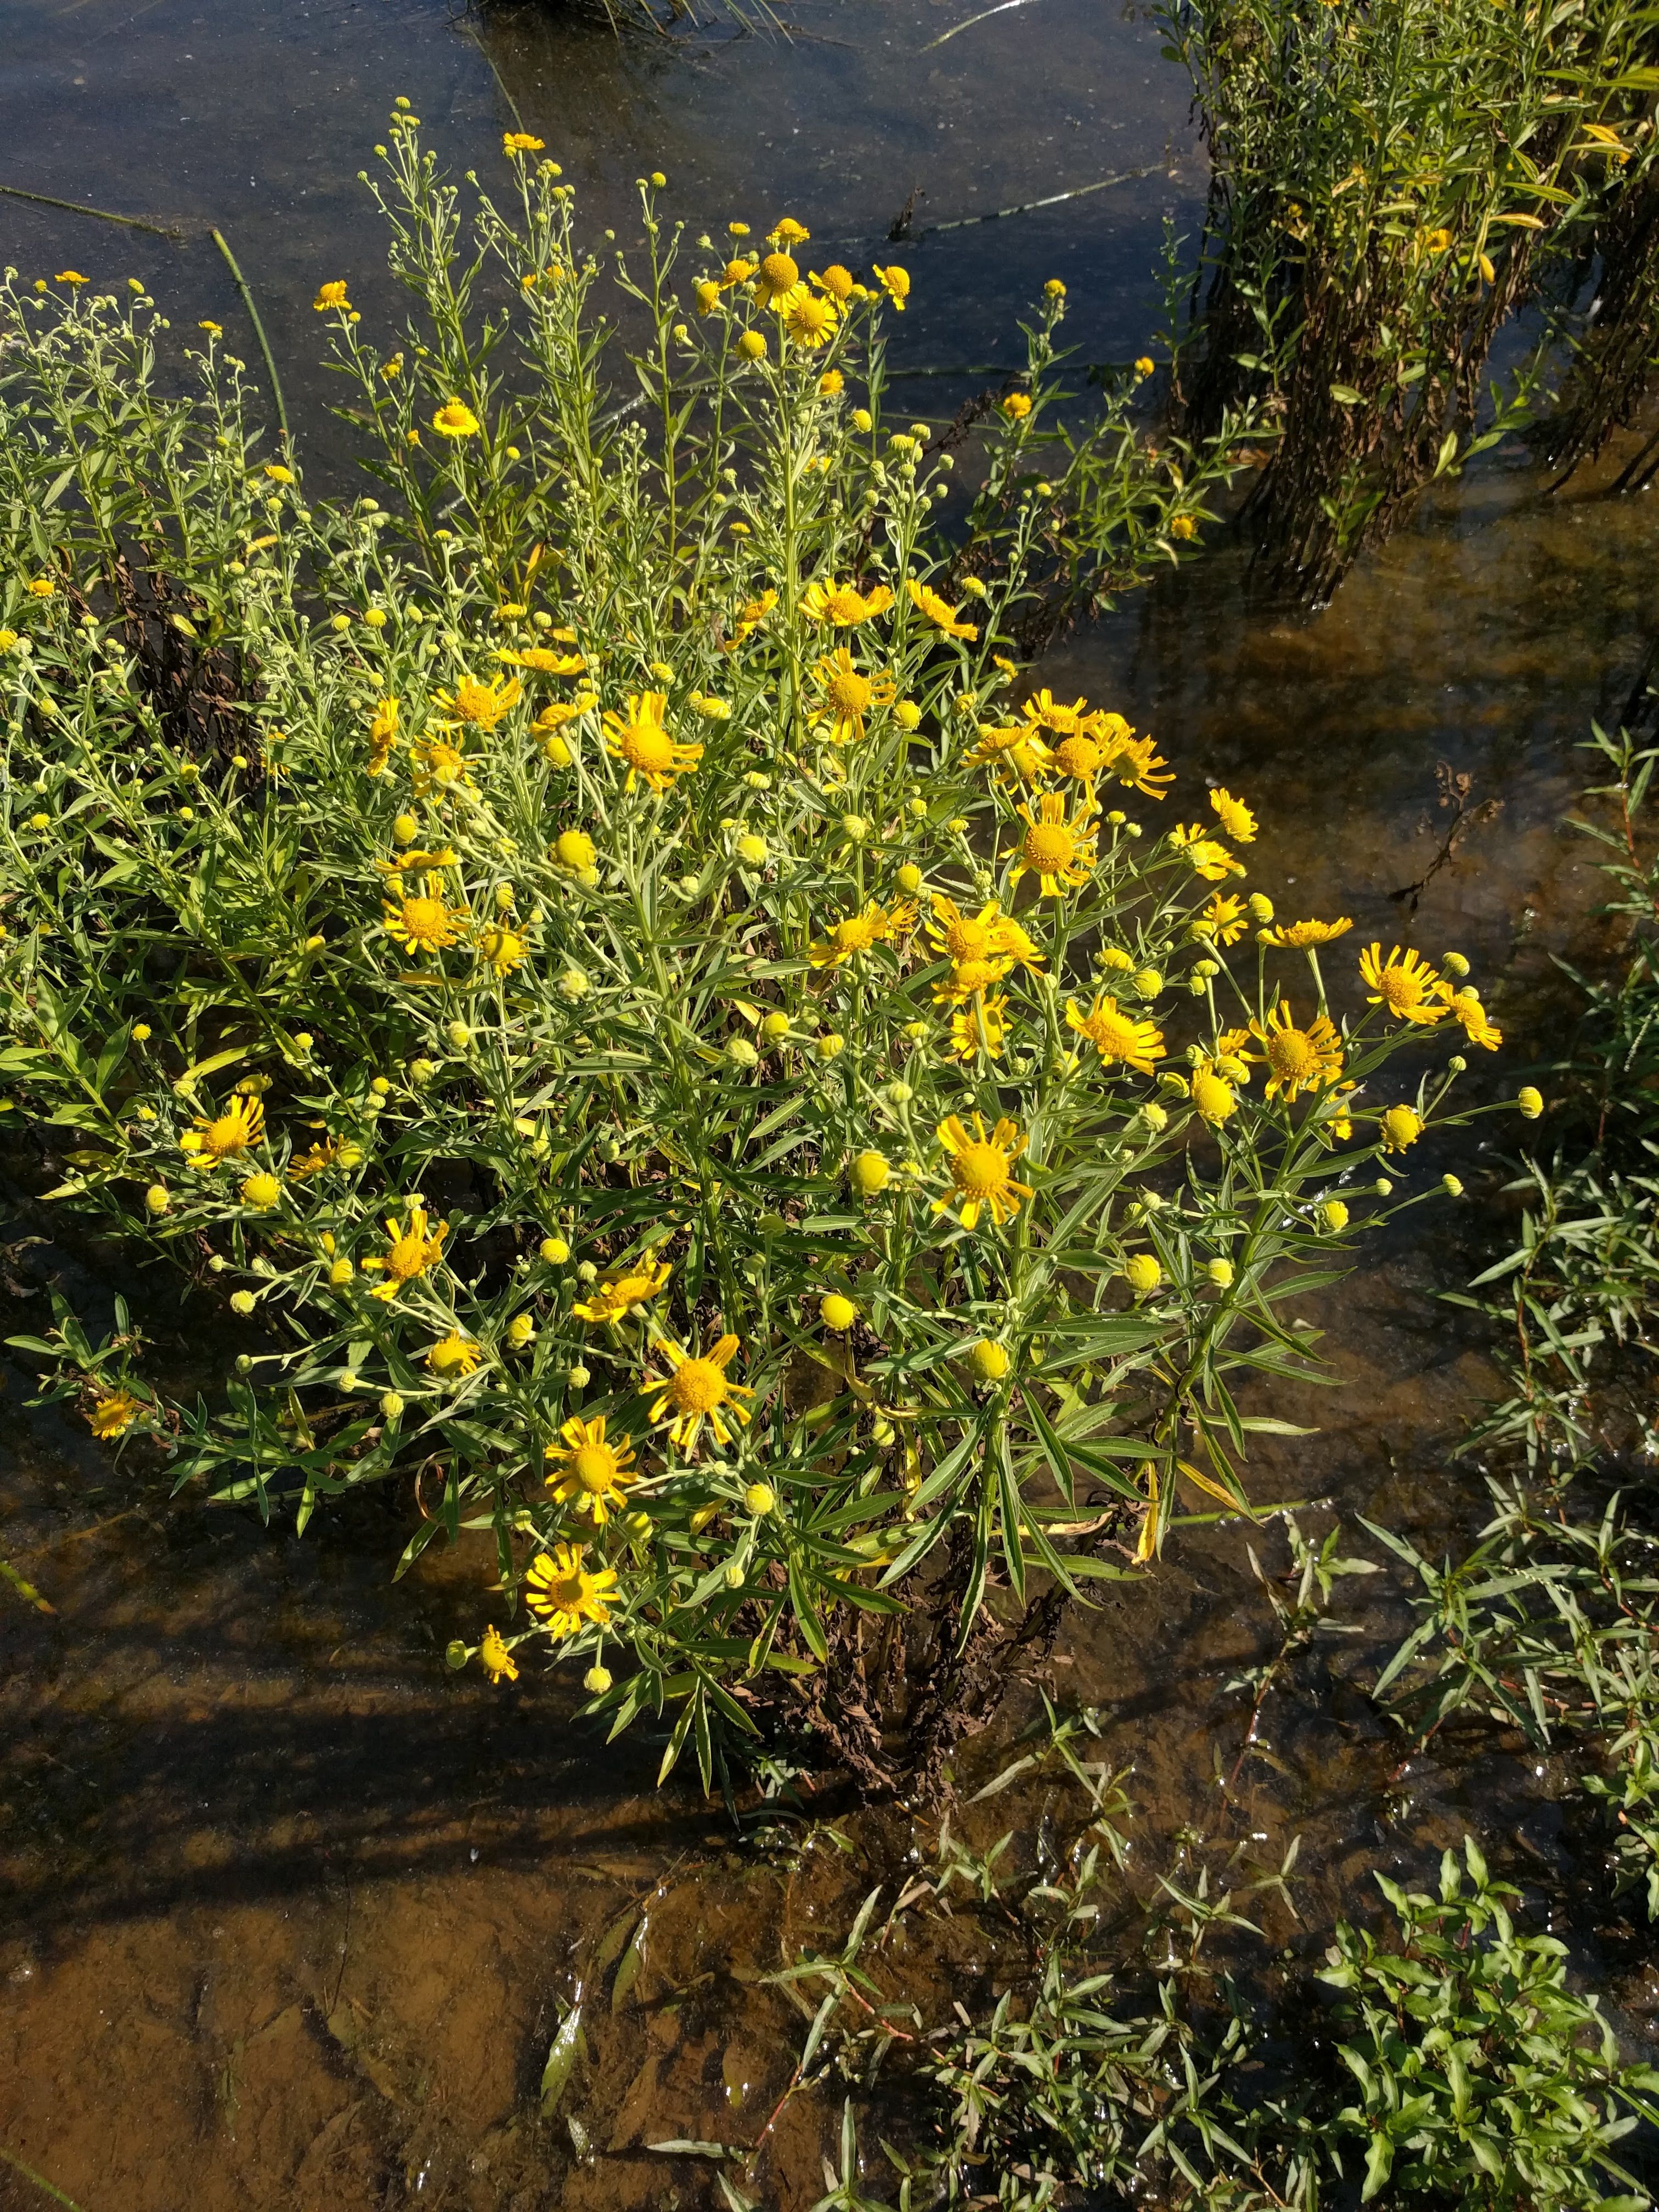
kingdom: Plantae
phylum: Tracheophyta
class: Magnoliopsida
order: Asterales
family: Asteraceae
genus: Helenium
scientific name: Helenium autumnale
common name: Sneezeweed
